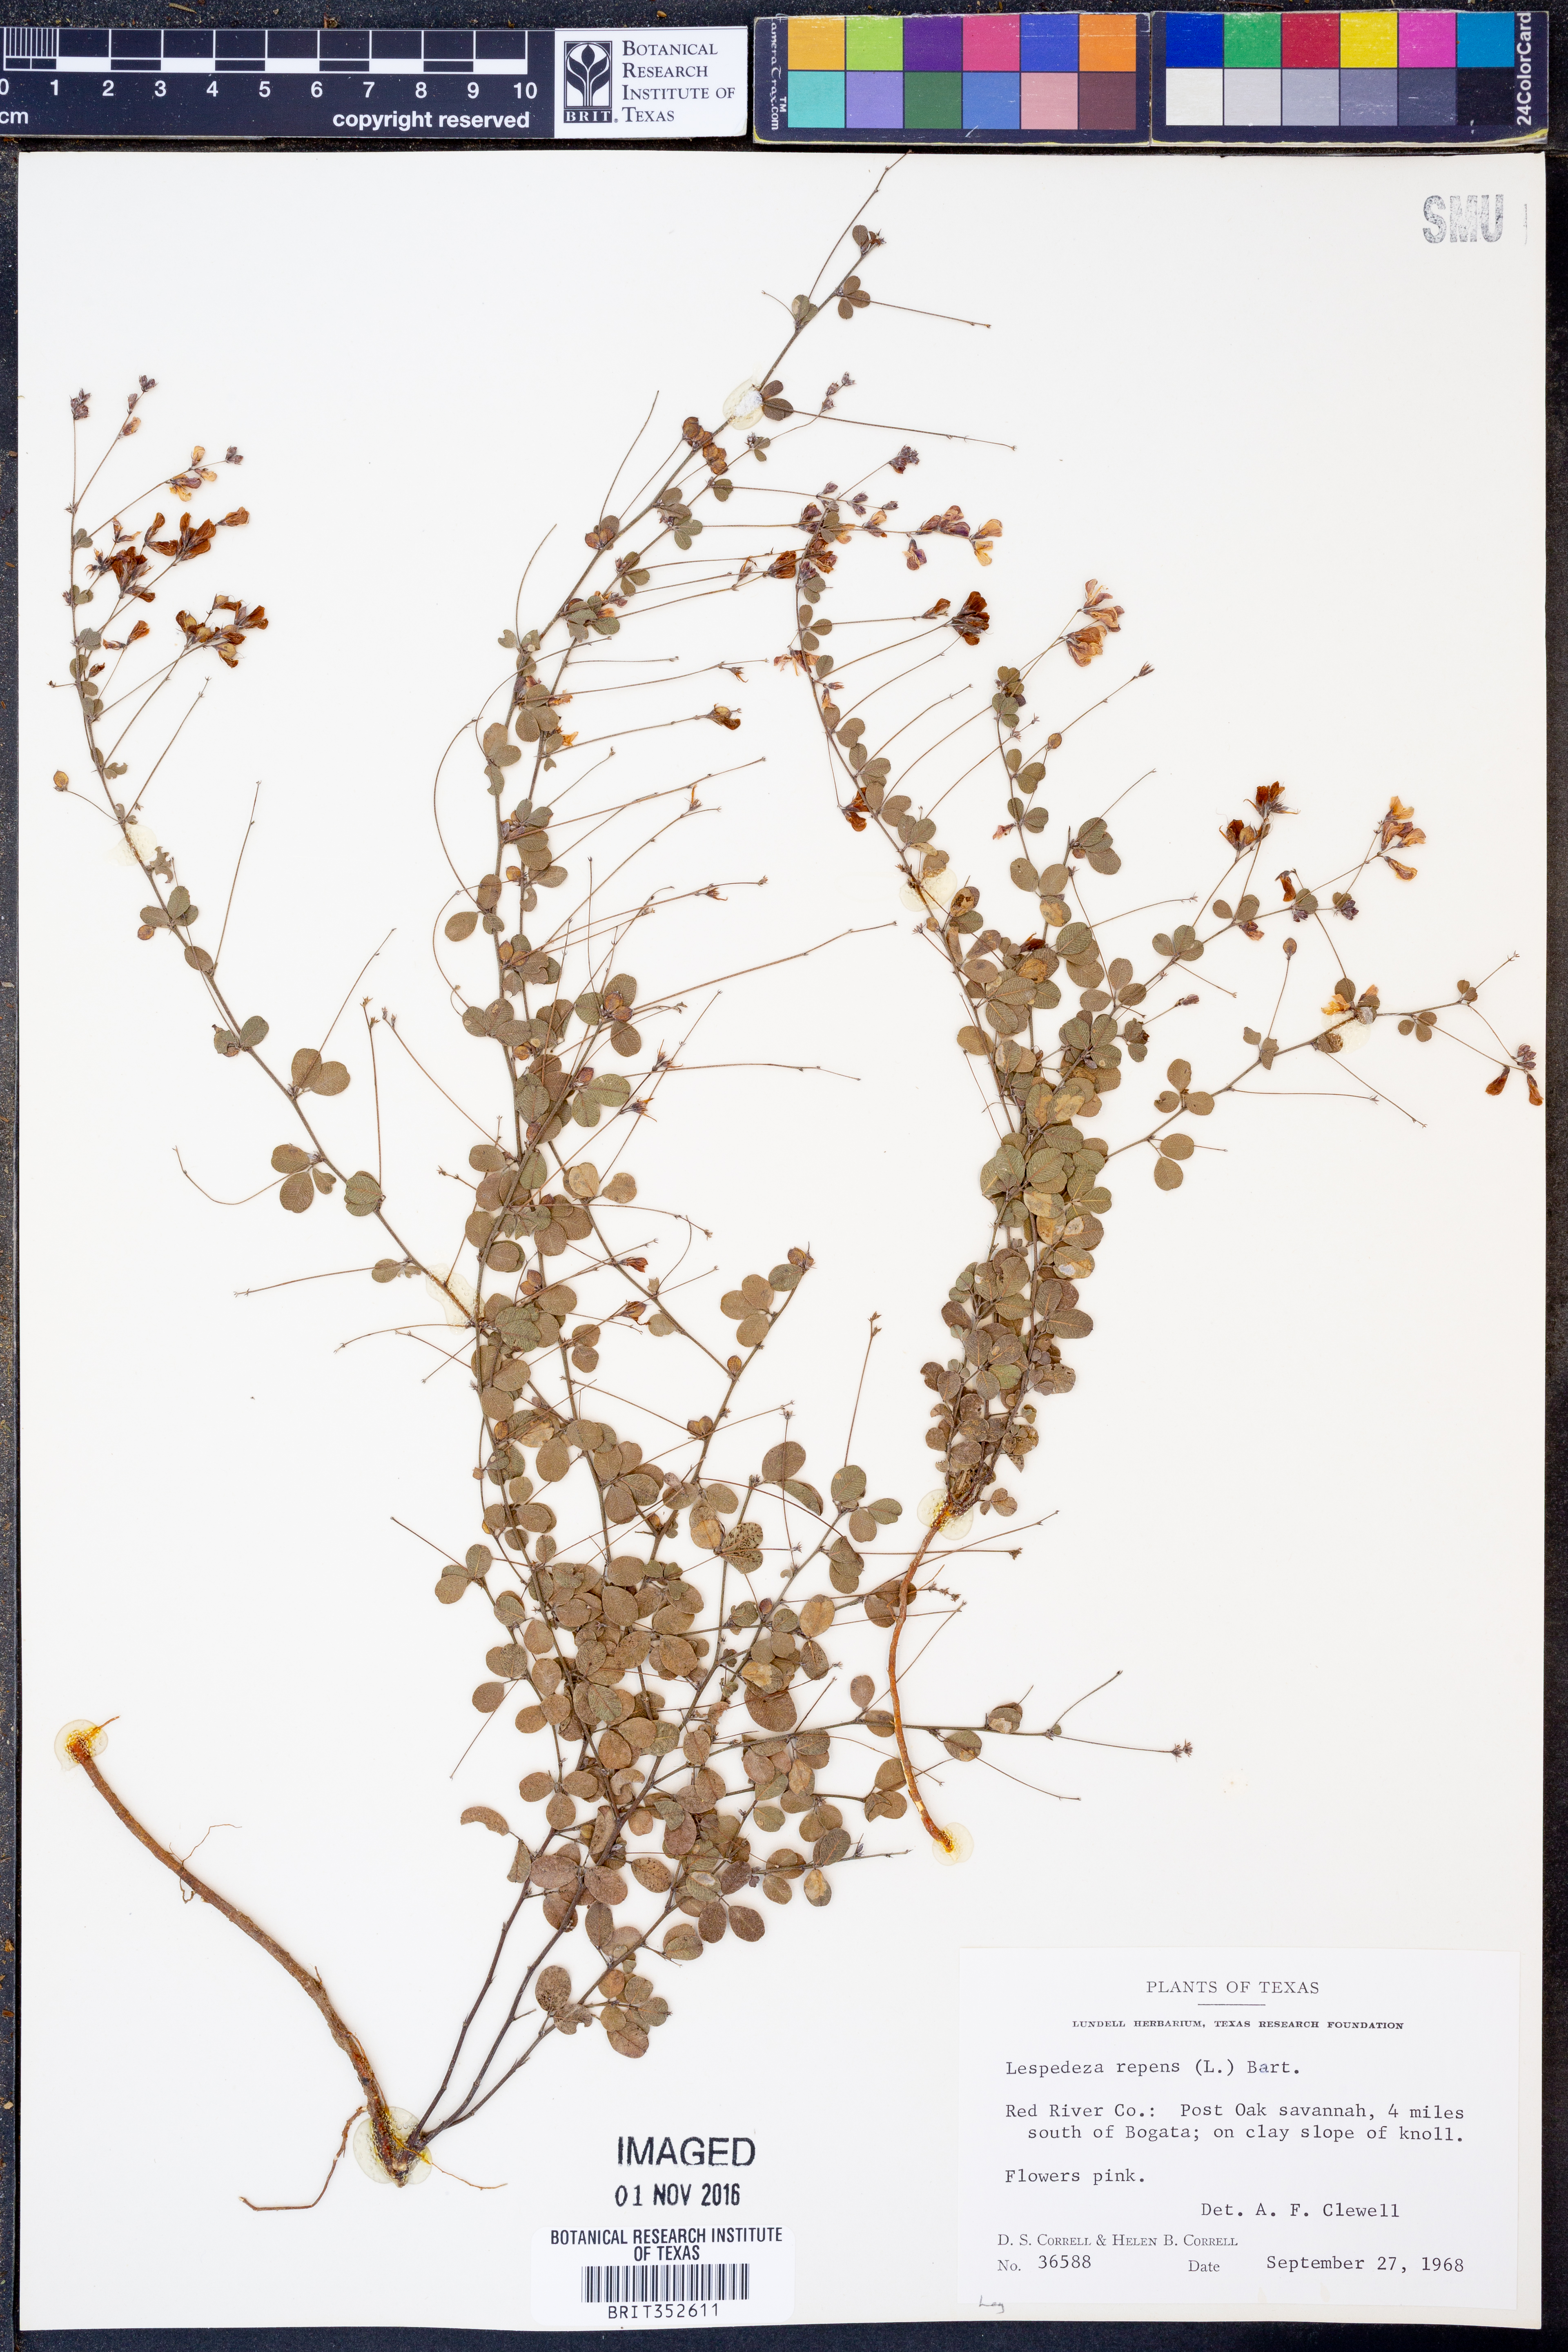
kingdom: Plantae
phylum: Tracheophyta
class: Magnoliopsida
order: Fabales
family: Fabaceae
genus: Lespedeza
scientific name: Lespedeza repens
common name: Creeping bush-clover
